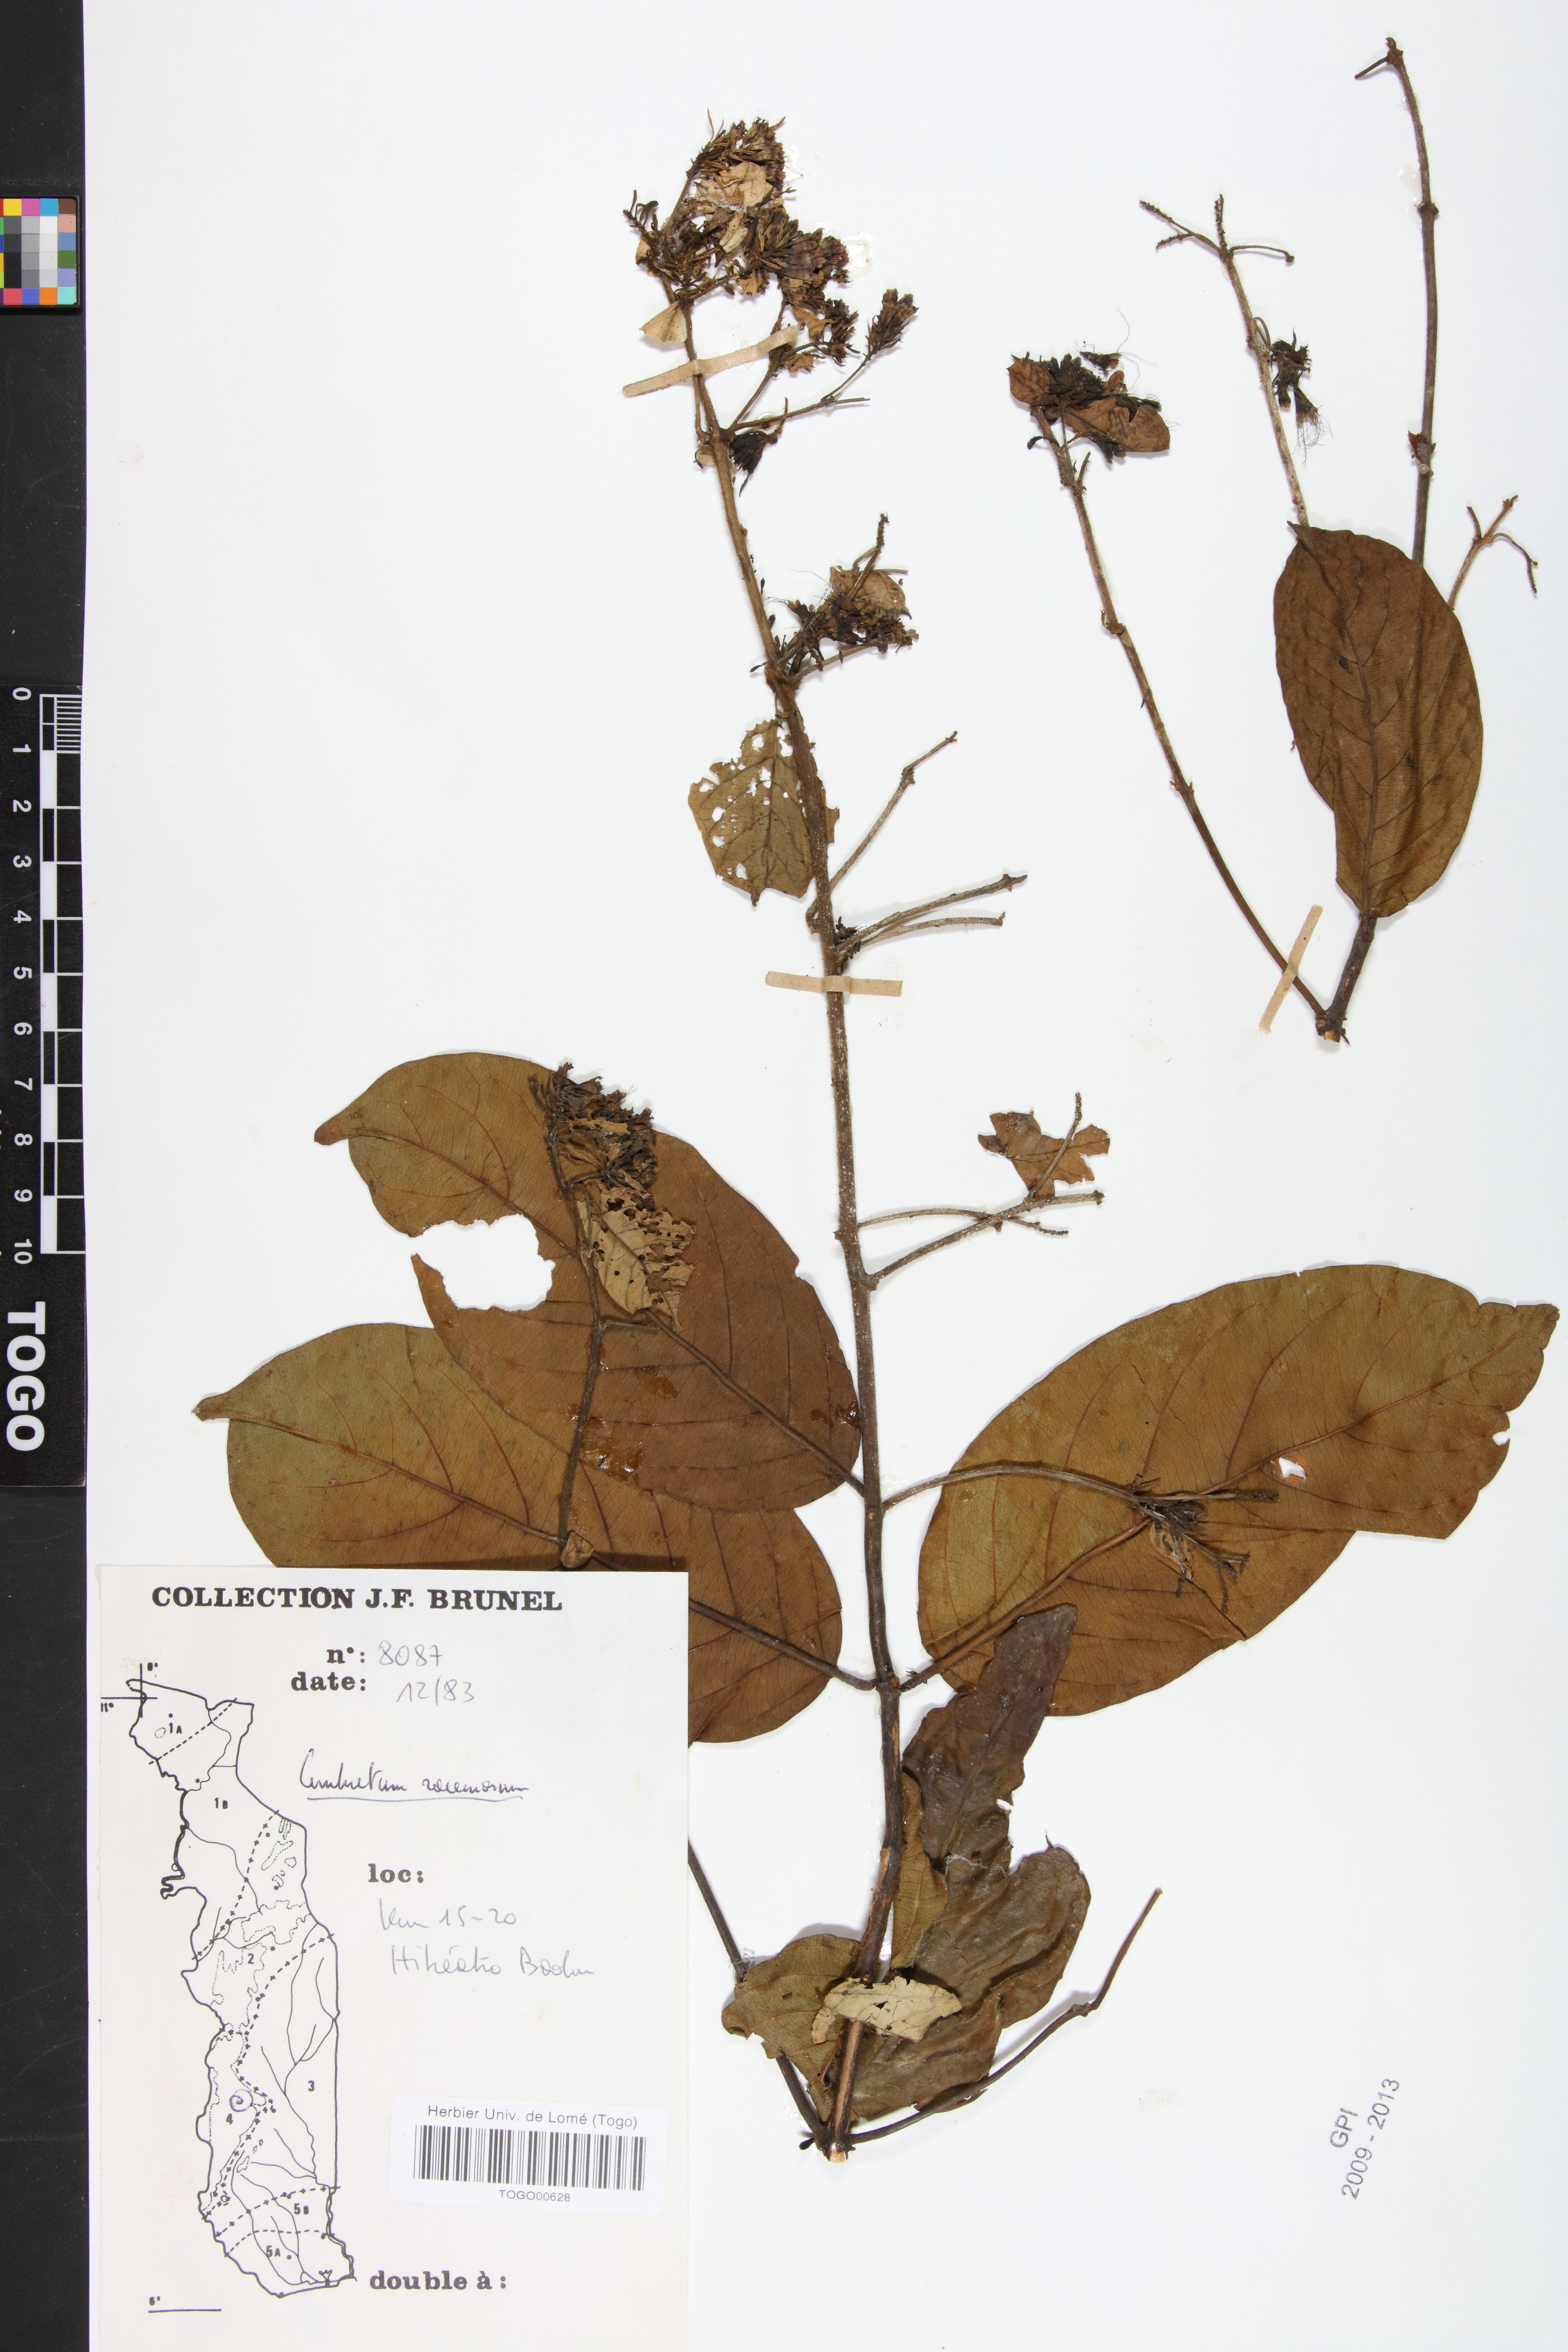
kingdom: Plantae
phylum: Tracheophyta
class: Magnoliopsida
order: Myrtales
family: Combretaceae
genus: Combretum
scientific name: Combretum racemosum
